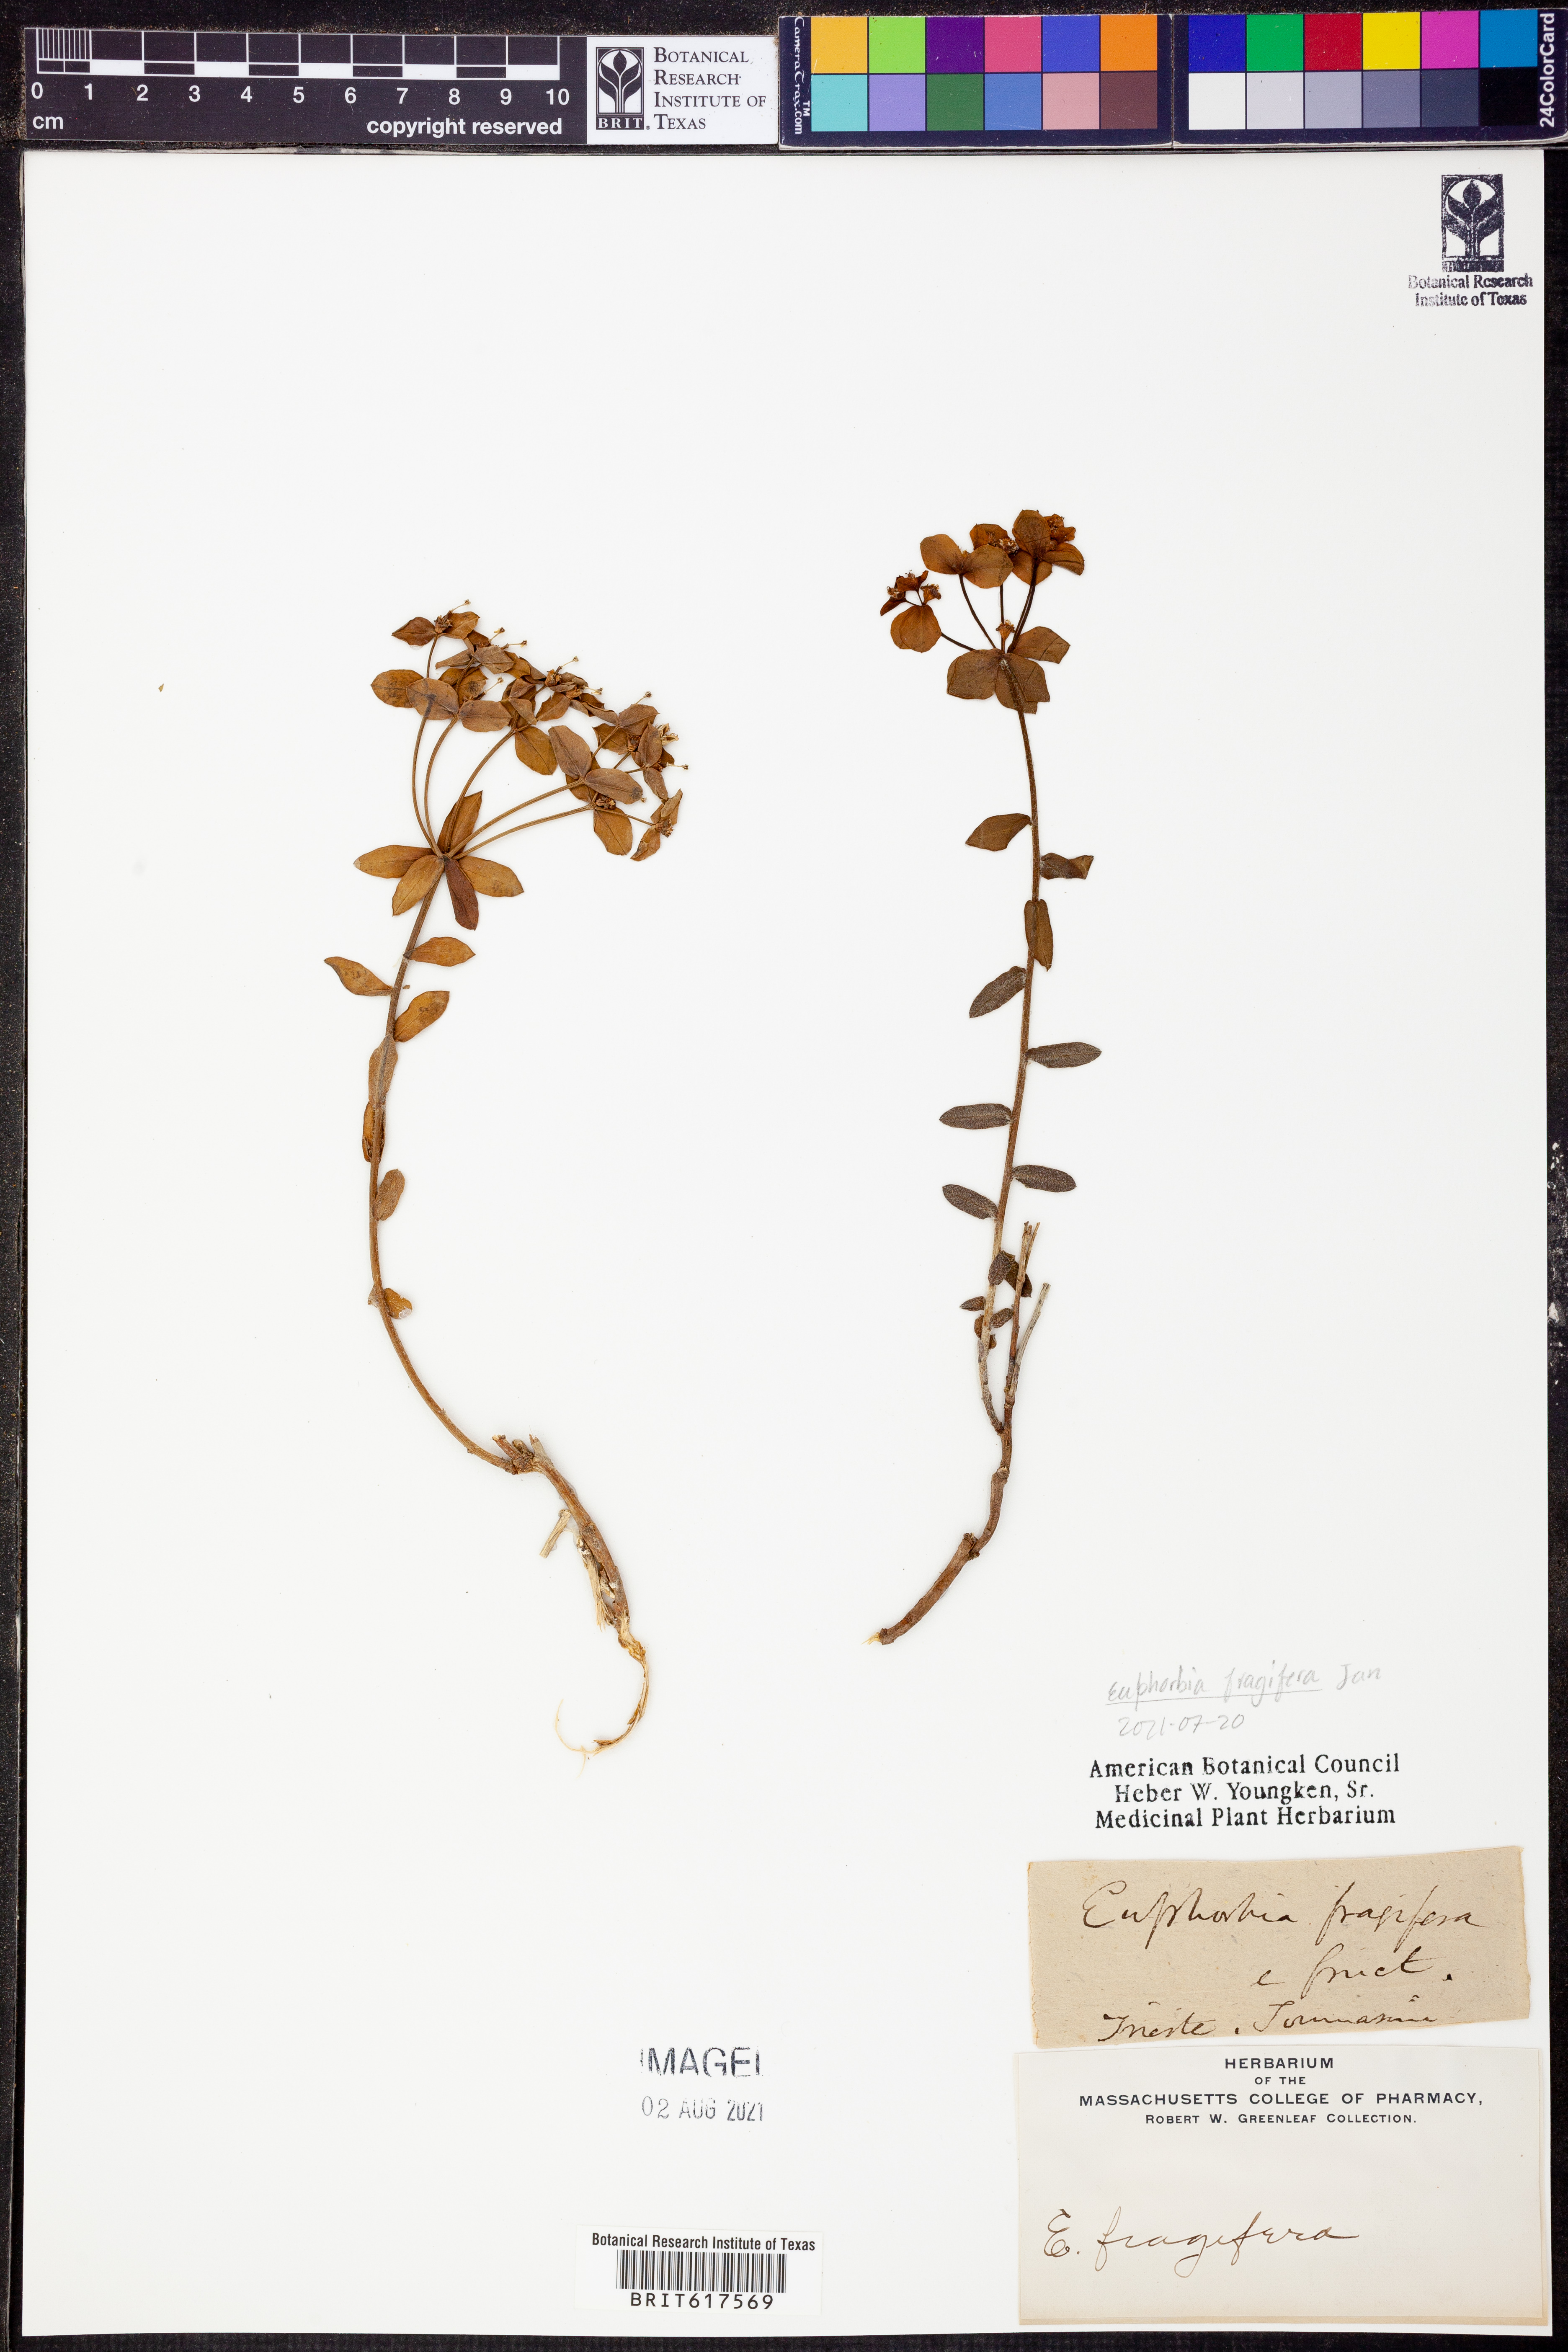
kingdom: Plantae
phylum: Tracheophyta
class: Magnoliopsida
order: Malpighiales
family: Euphorbiaceae
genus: Euphorbia
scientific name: Euphorbia fragifera
